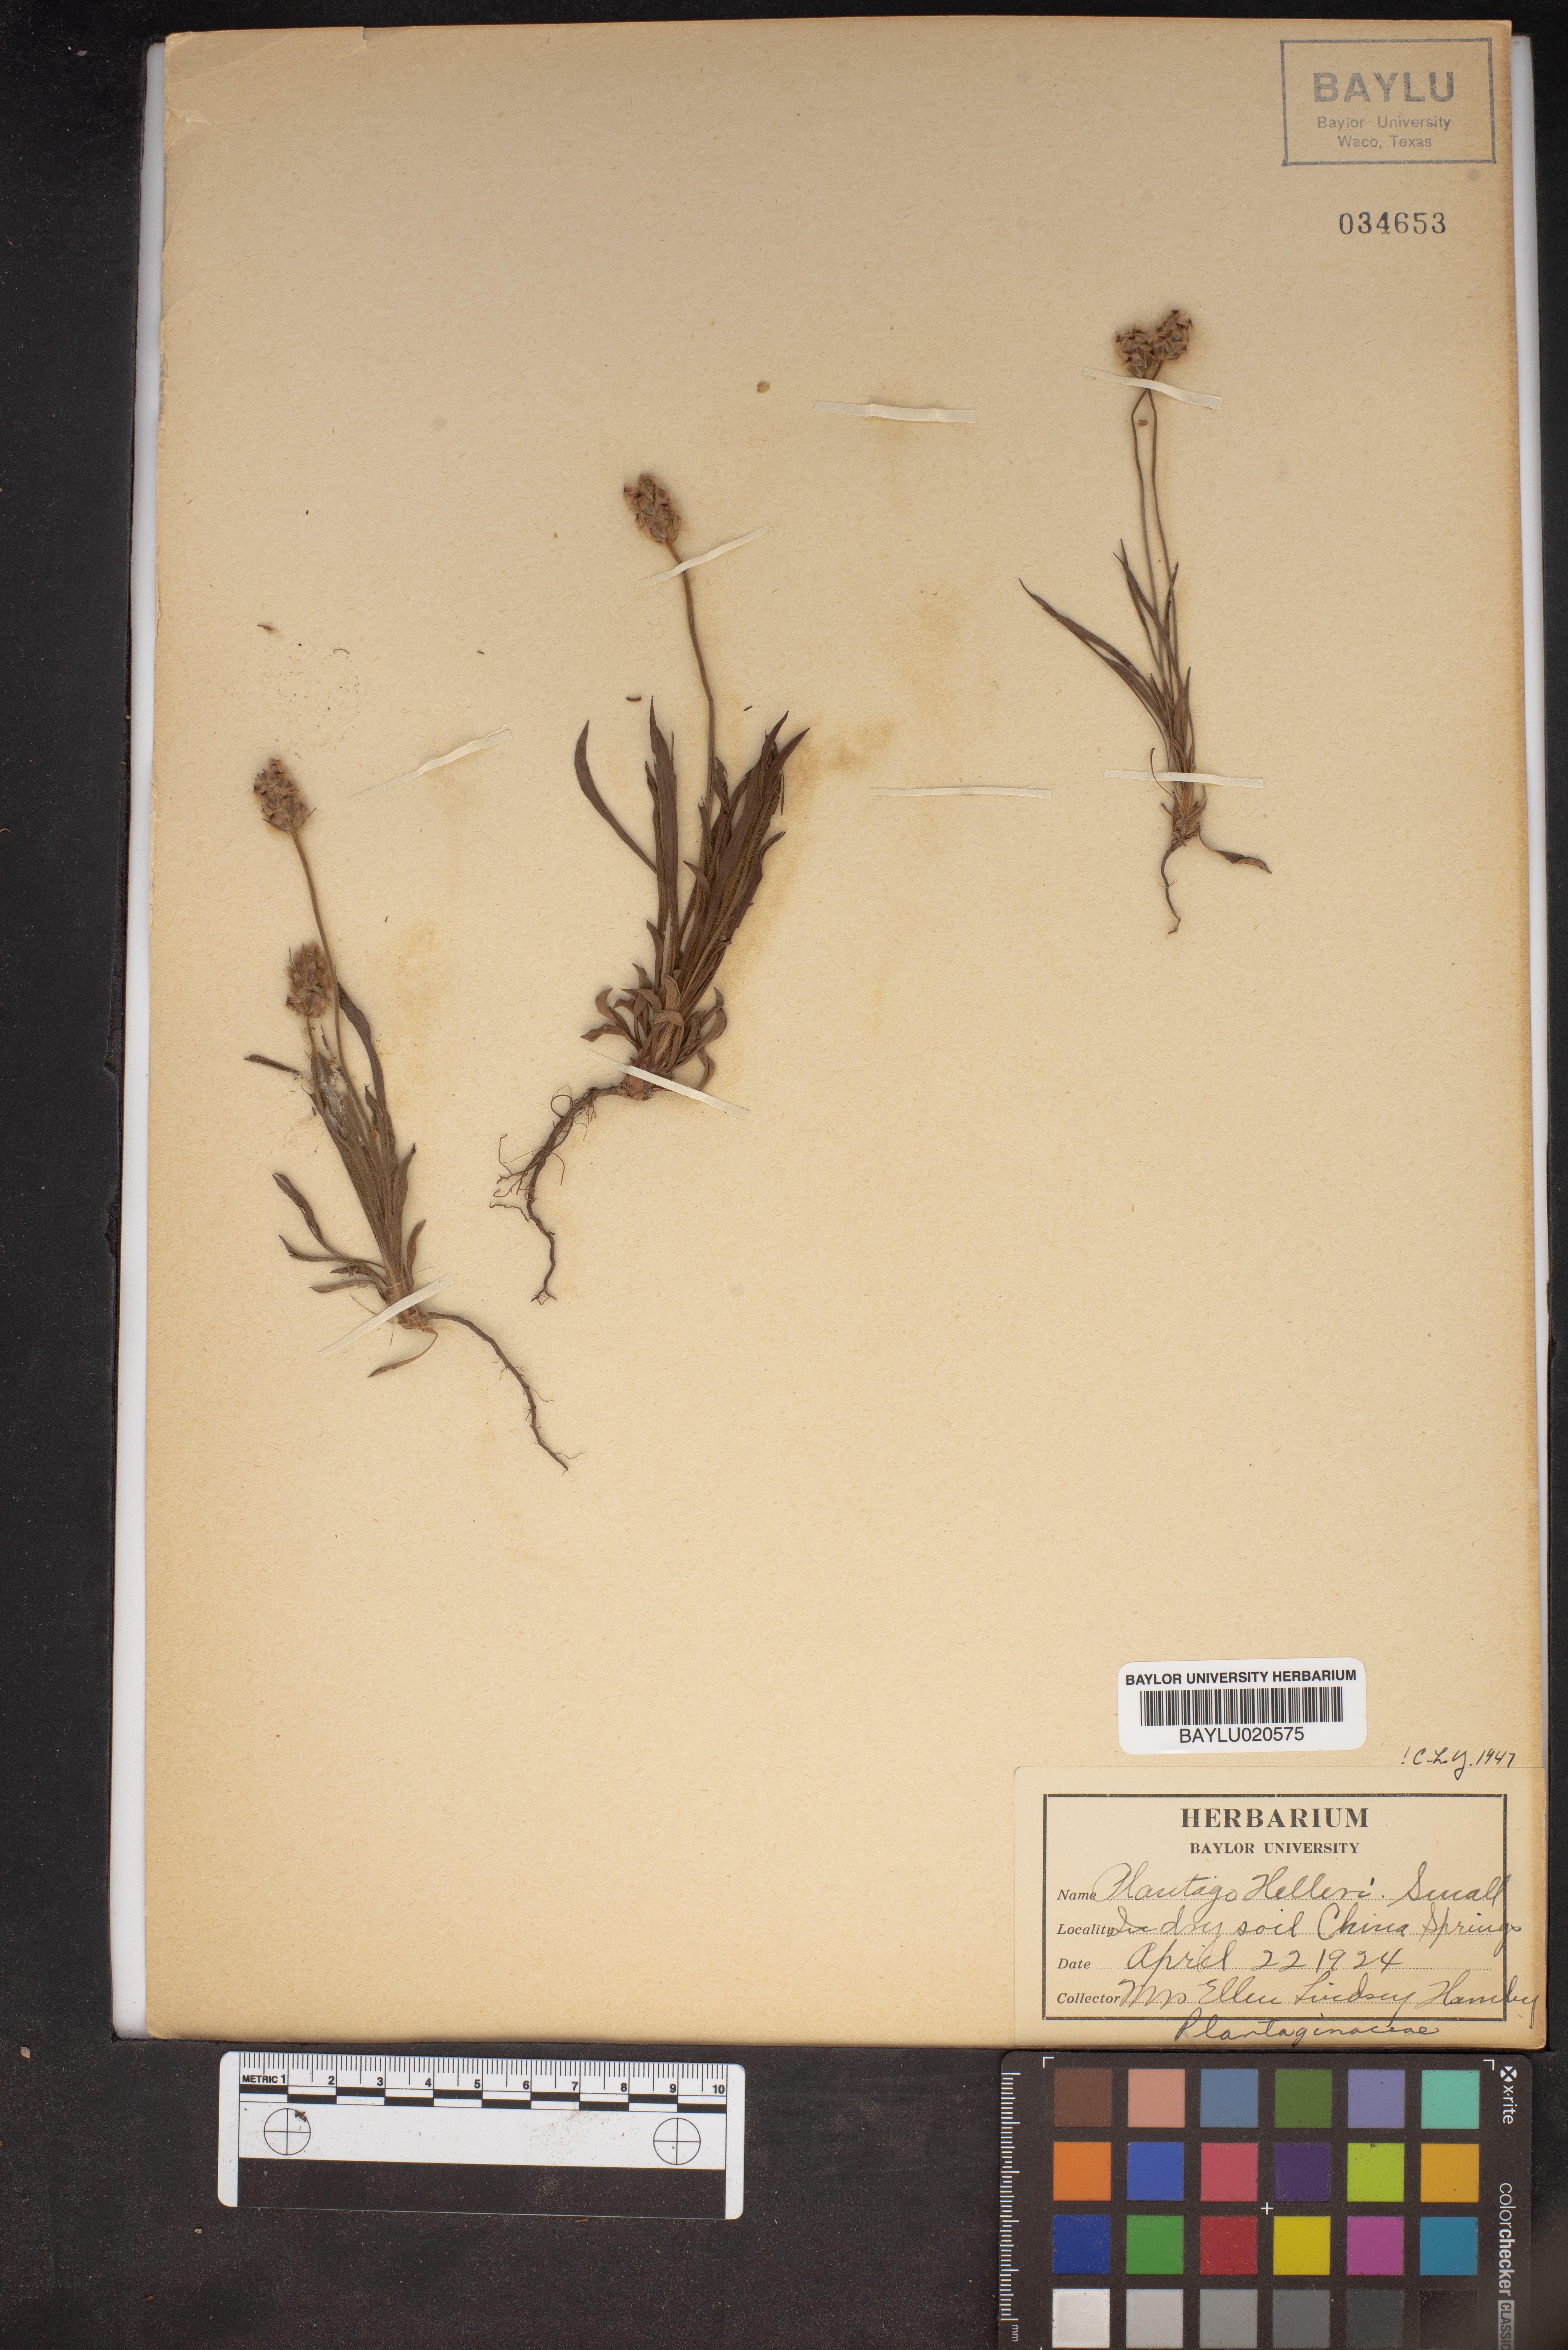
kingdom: Plantae
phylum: Tracheophyta
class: Magnoliopsida
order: Lamiales
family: Plantaginaceae
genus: Plantago
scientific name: Plantago helleri
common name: Heller's plantain
